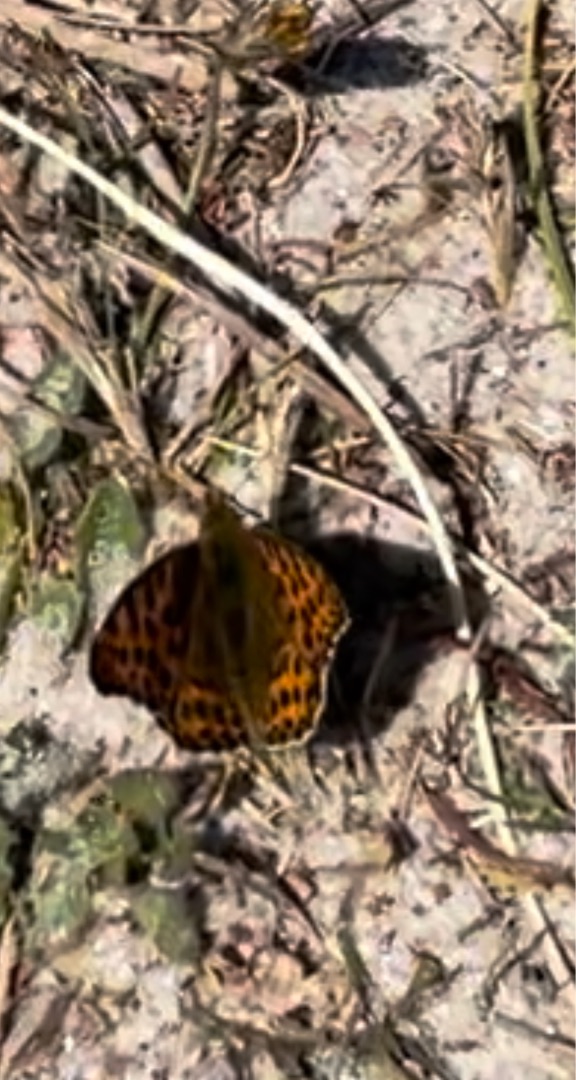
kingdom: Animalia
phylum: Arthropoda
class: Insecta
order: Lepidoptera
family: Nymphalidae
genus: Issoria
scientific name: Issoria lathonia
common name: Storplettet perlemorsommerfugl
